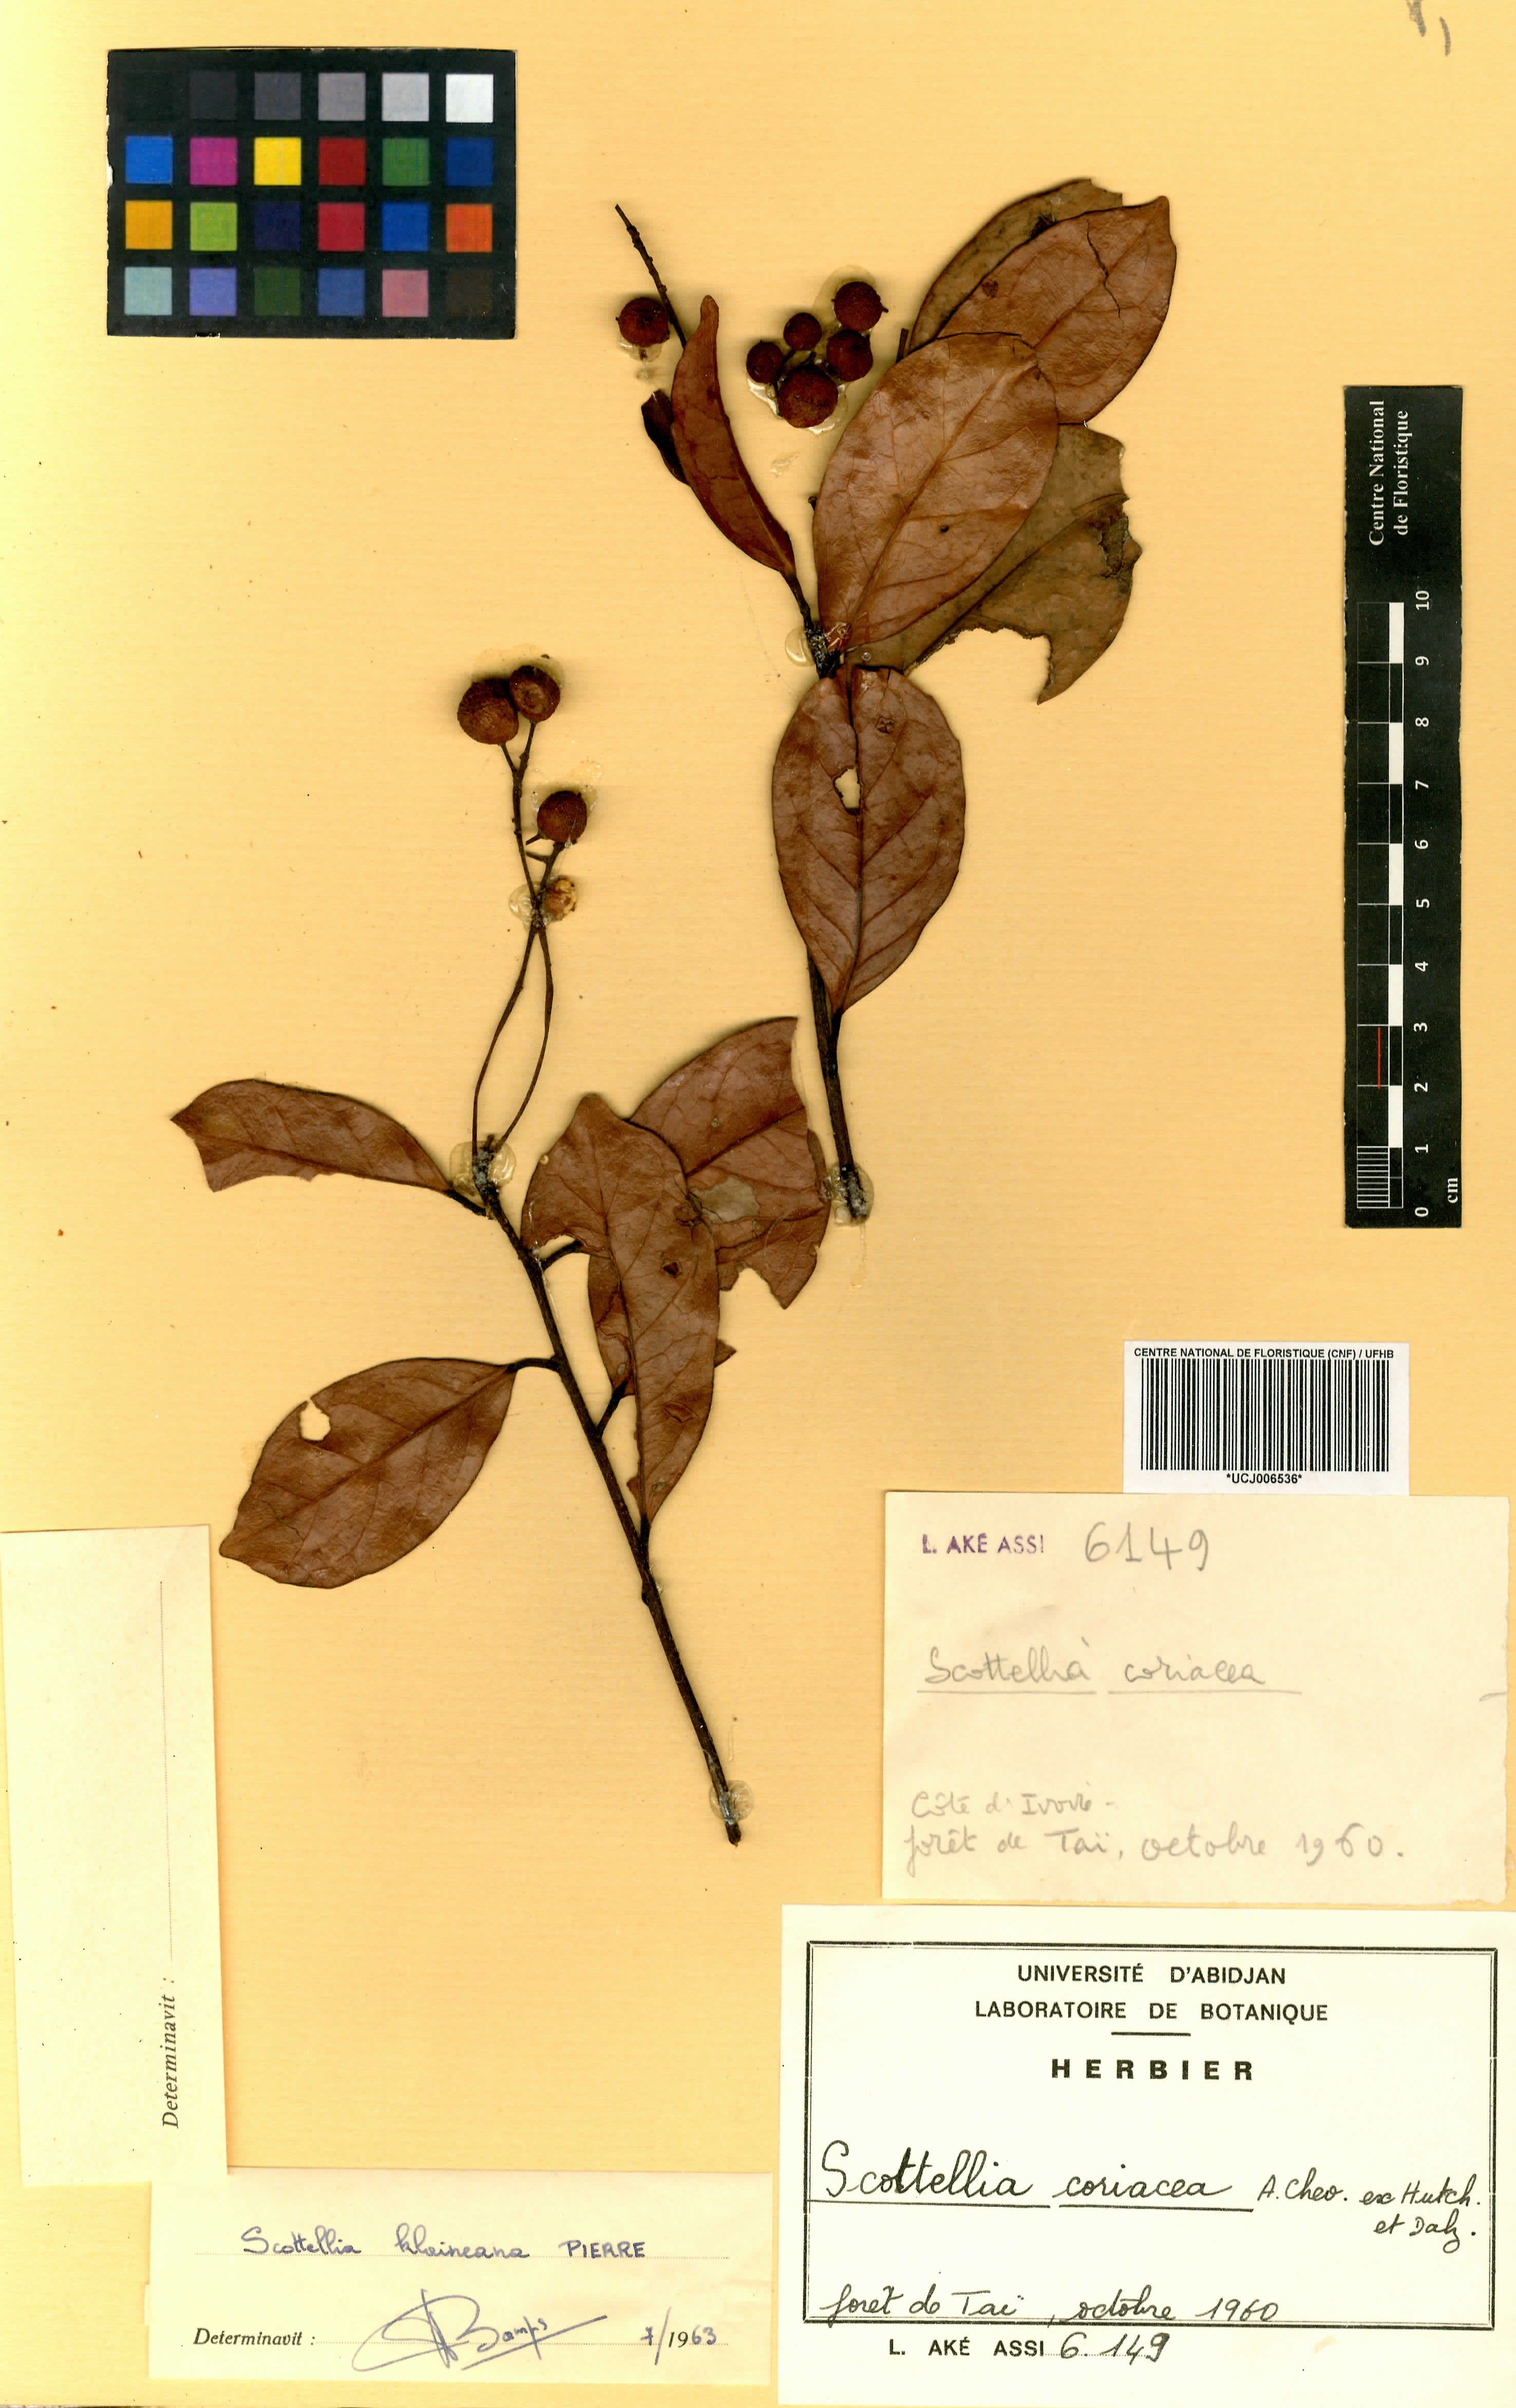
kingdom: Plantae
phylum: Tracheophyta
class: Magnoliopsida
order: Malpighiales
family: Achariaceae
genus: Scottellia
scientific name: Scottellia klaineana
